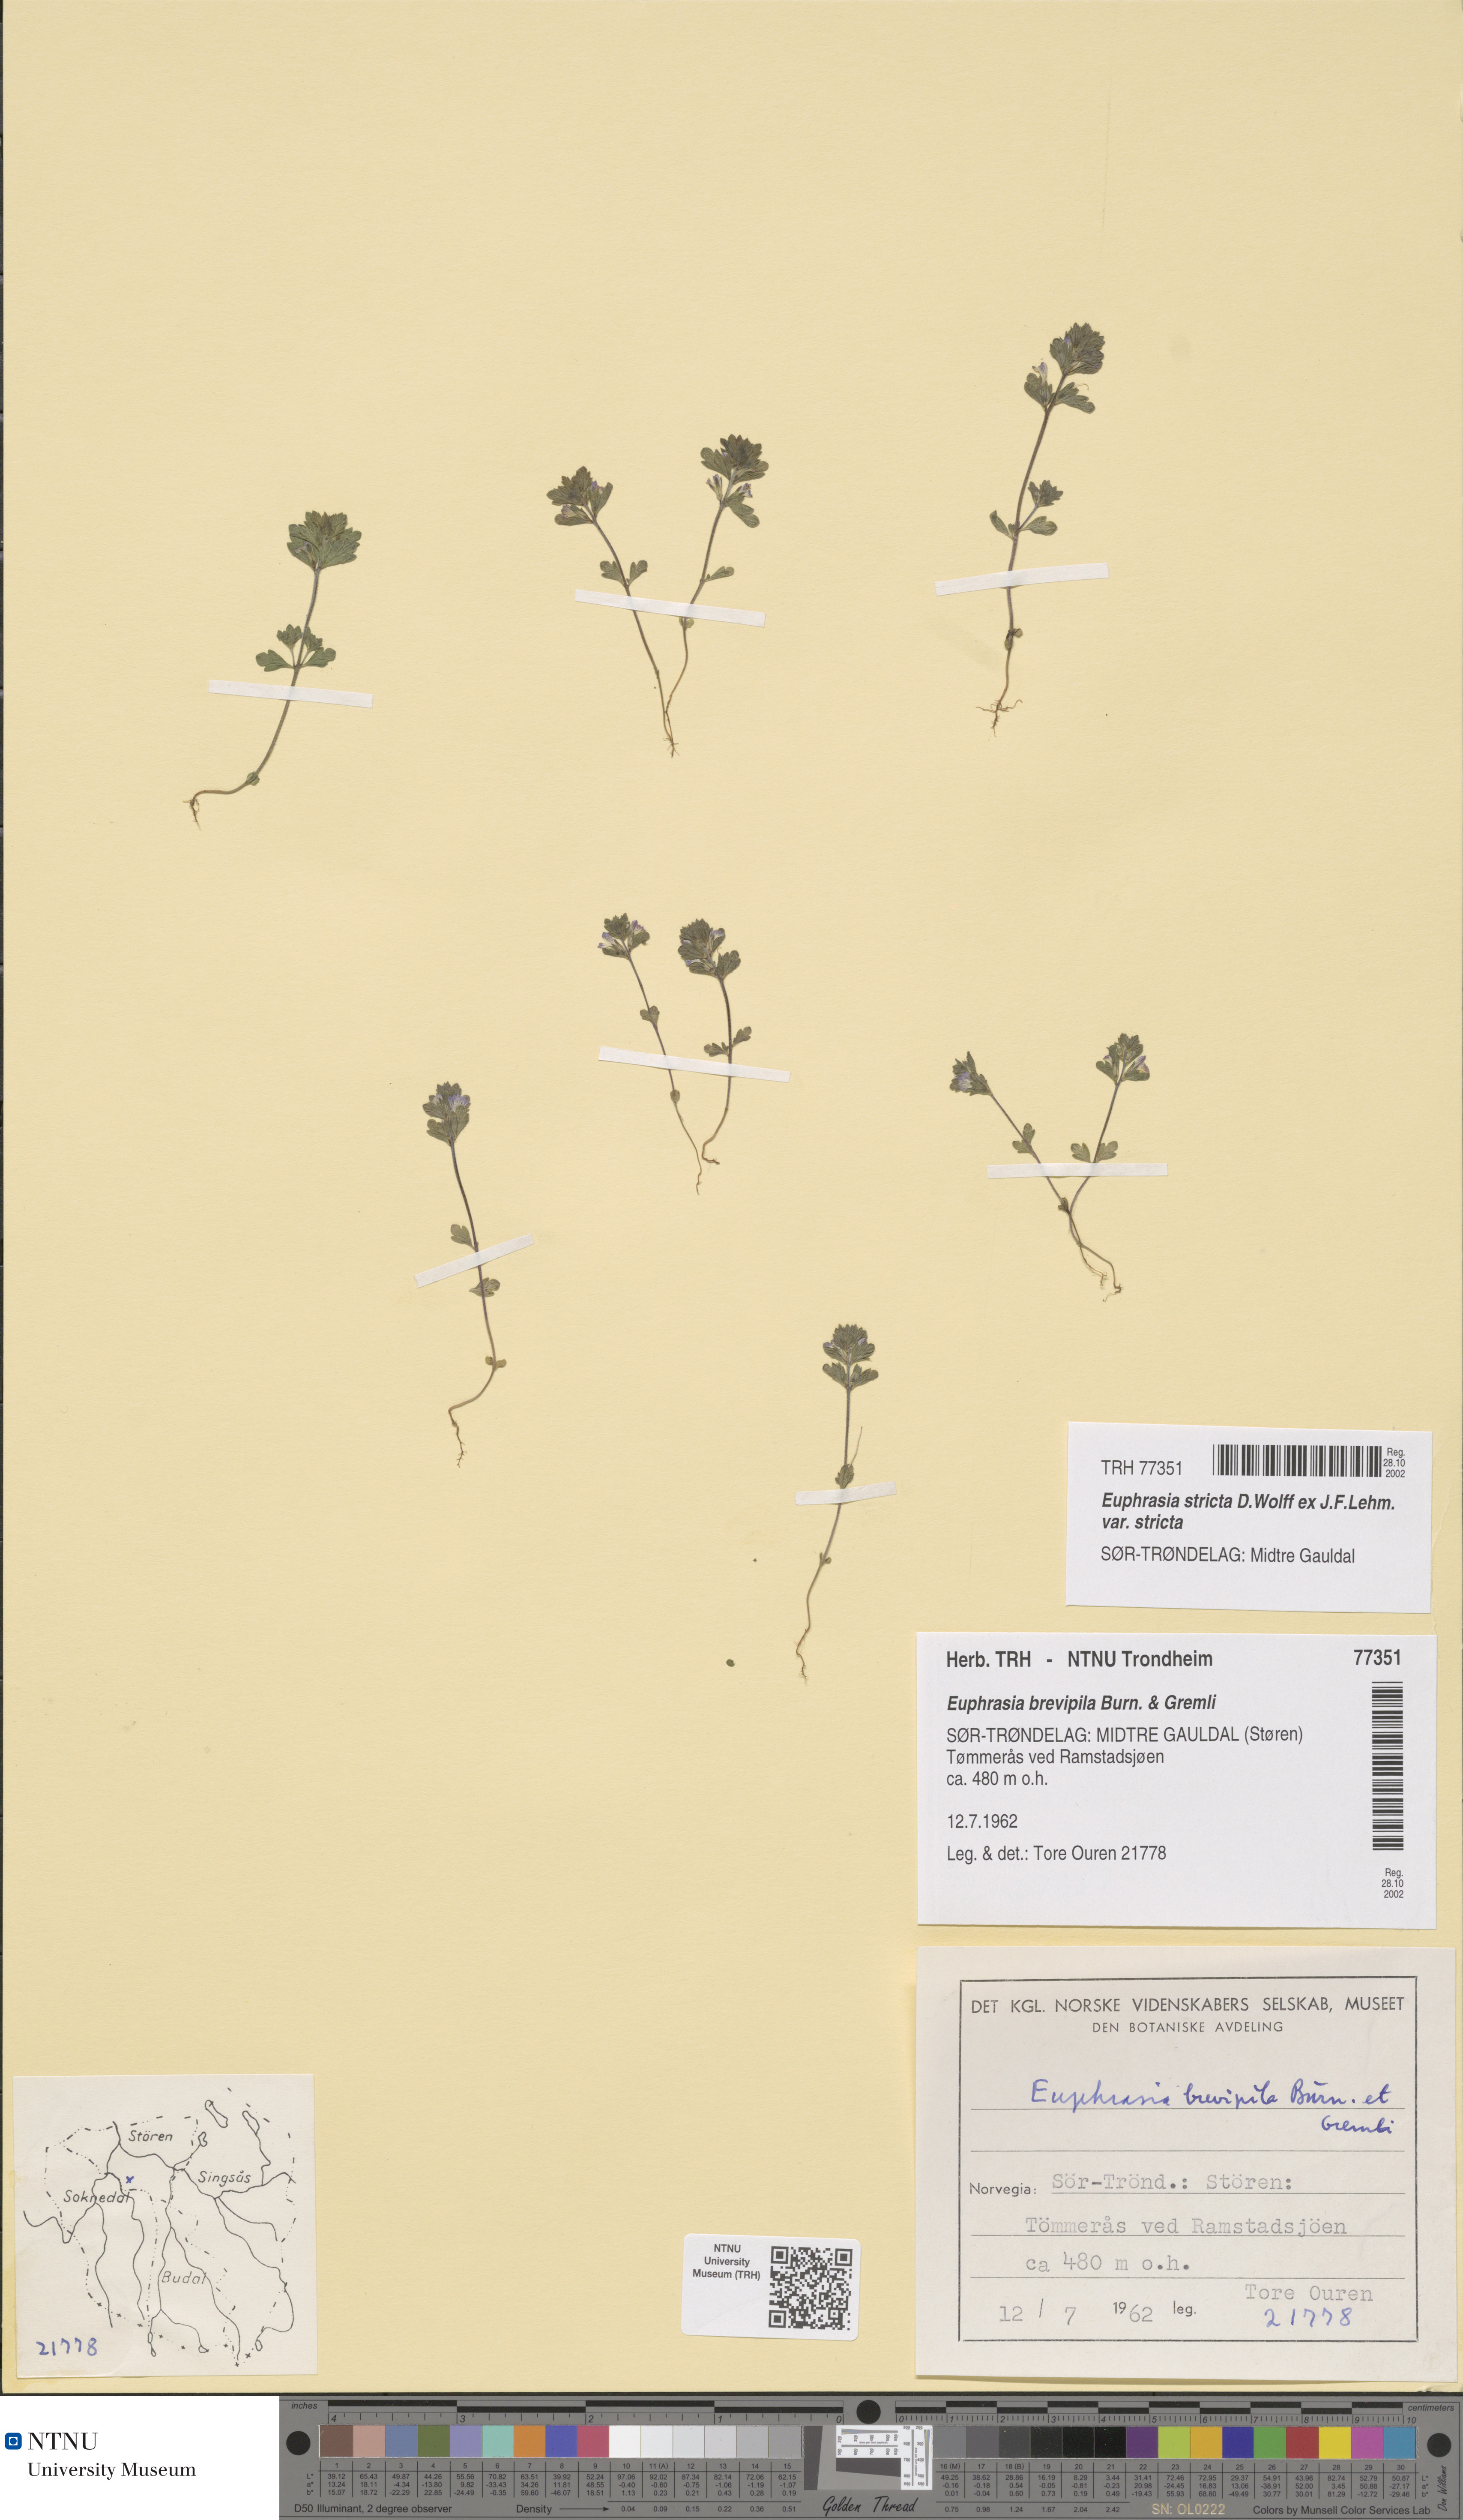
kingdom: Plantae
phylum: Tracheophyta
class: Magnoliopsida
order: Lamiales
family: Orobanchaceae
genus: Euphrasia
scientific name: Euphrasia vernalis
